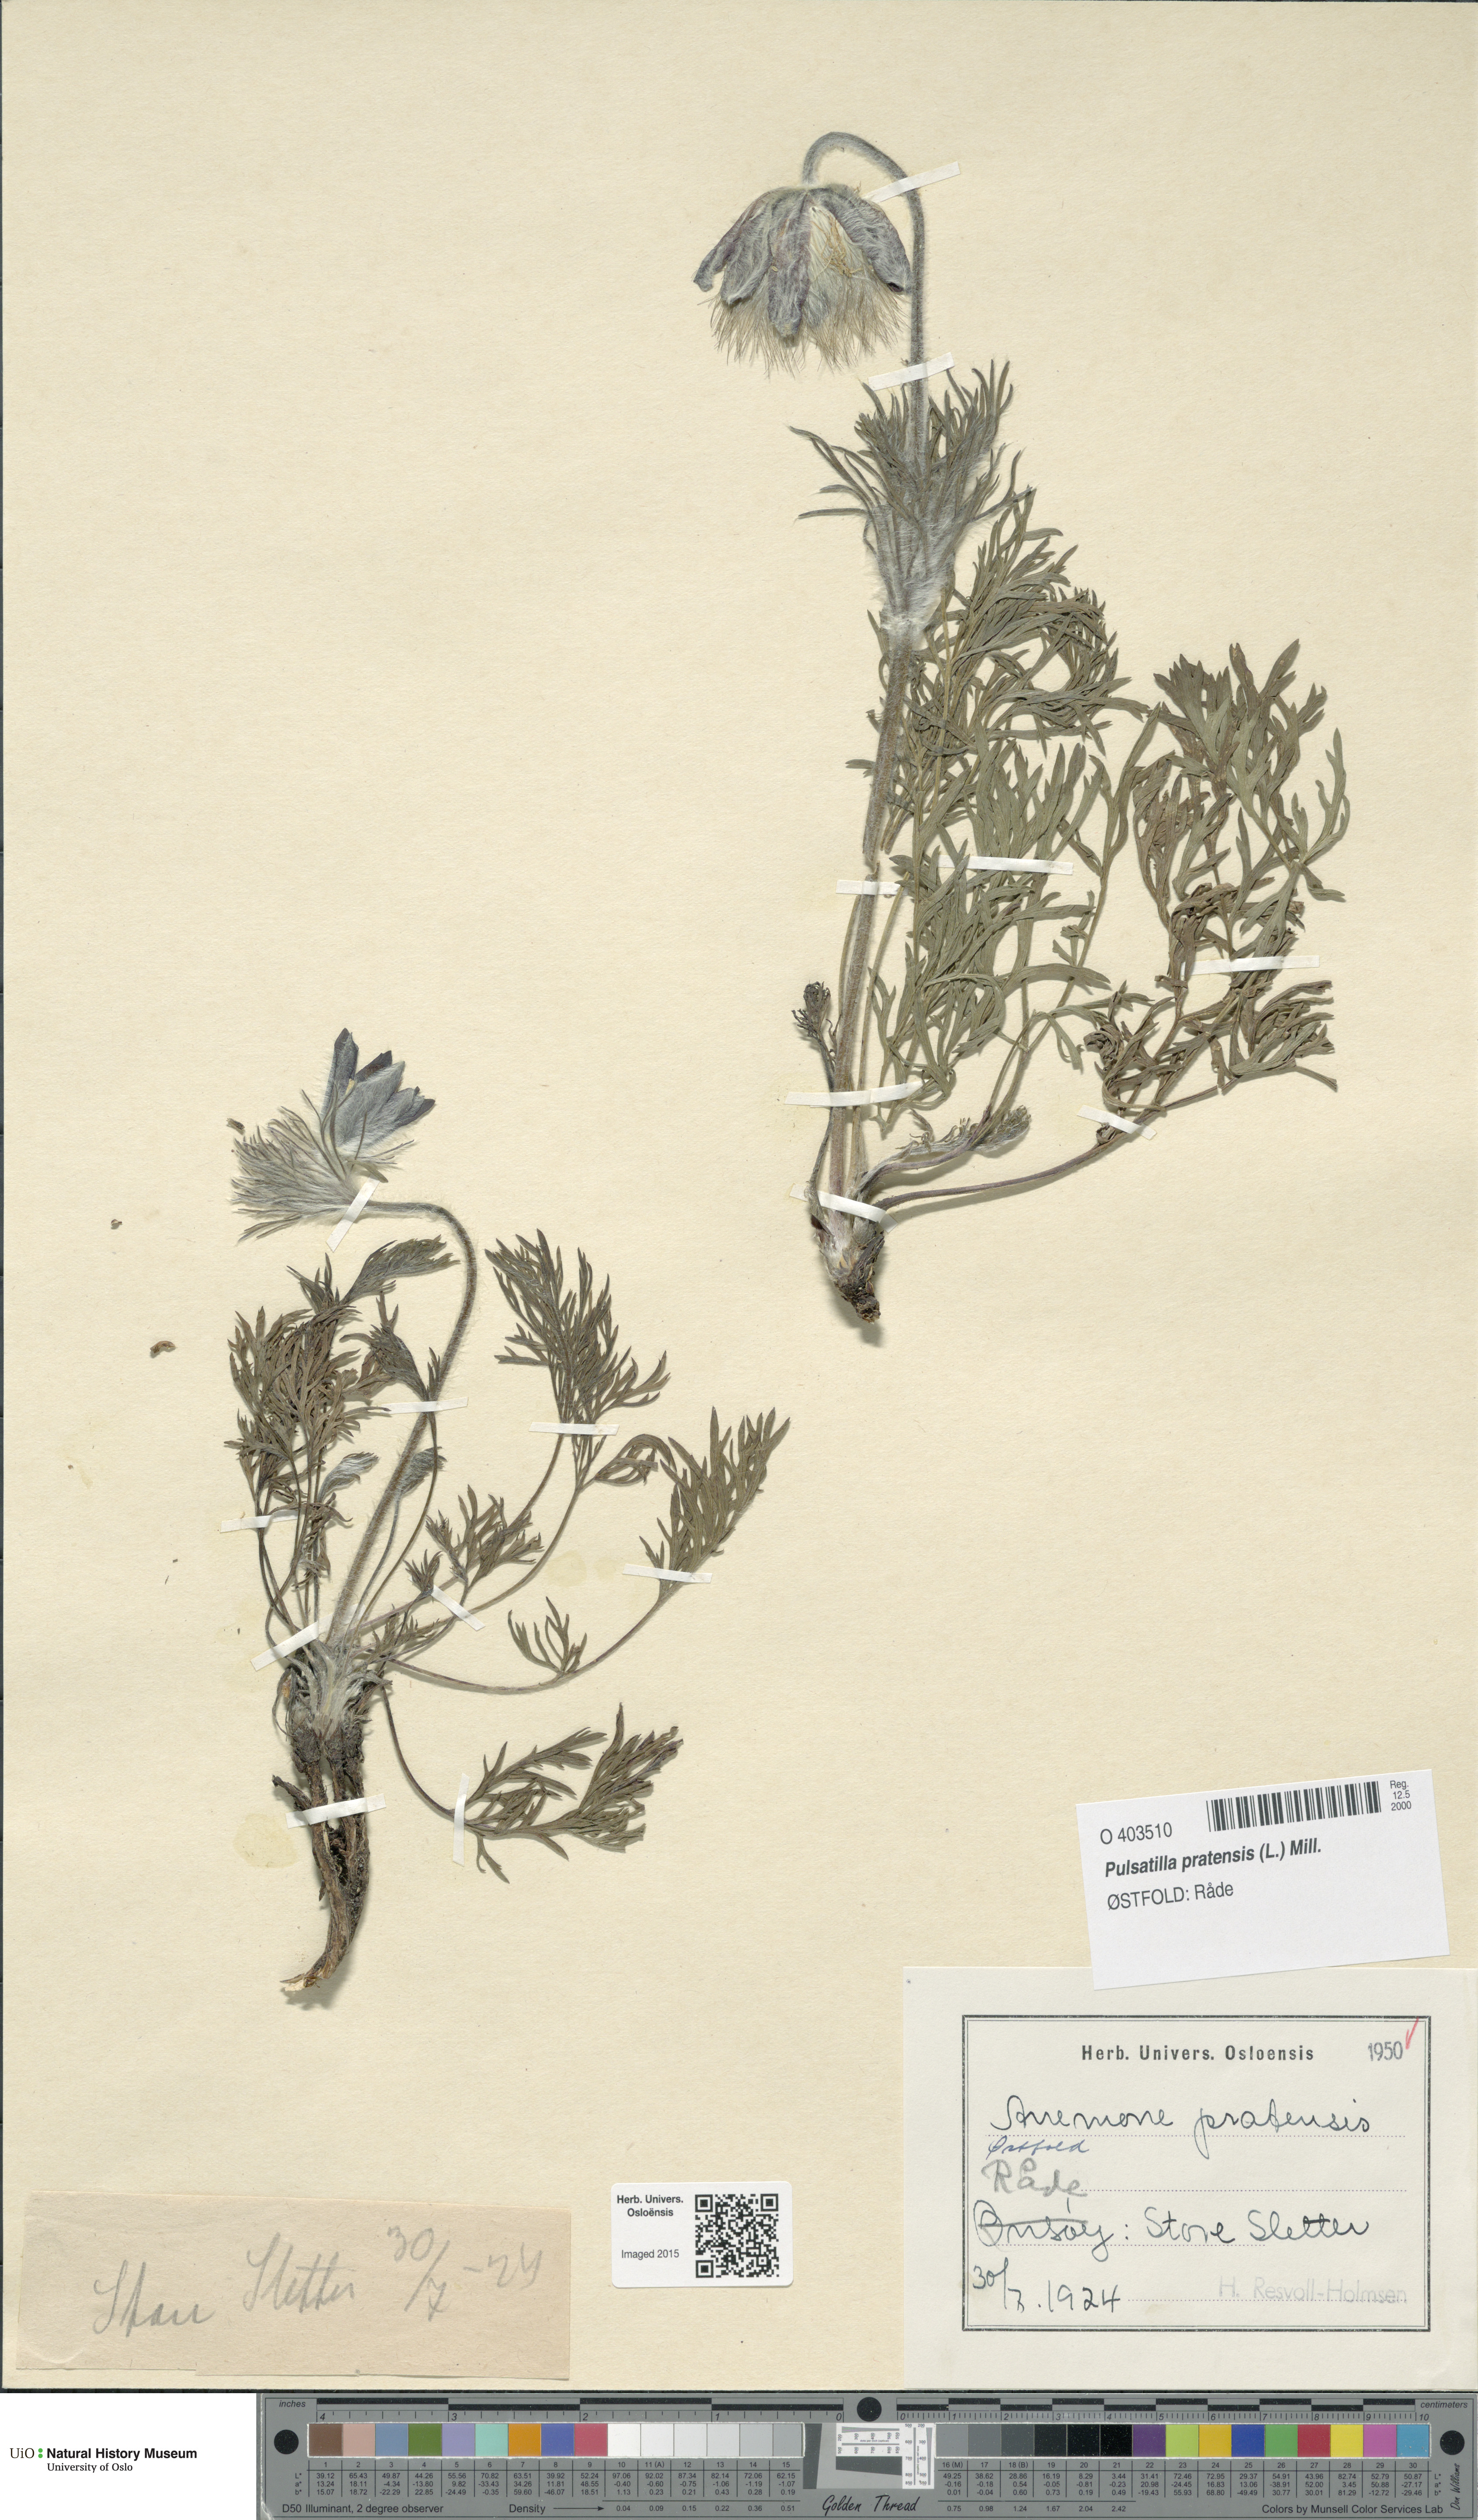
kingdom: Plantae
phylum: Tracheophyta
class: Magnoliopsida
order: Ranunculales
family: Ranunculaceae
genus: Pulsatilla
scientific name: Pulsatilla pratensis
